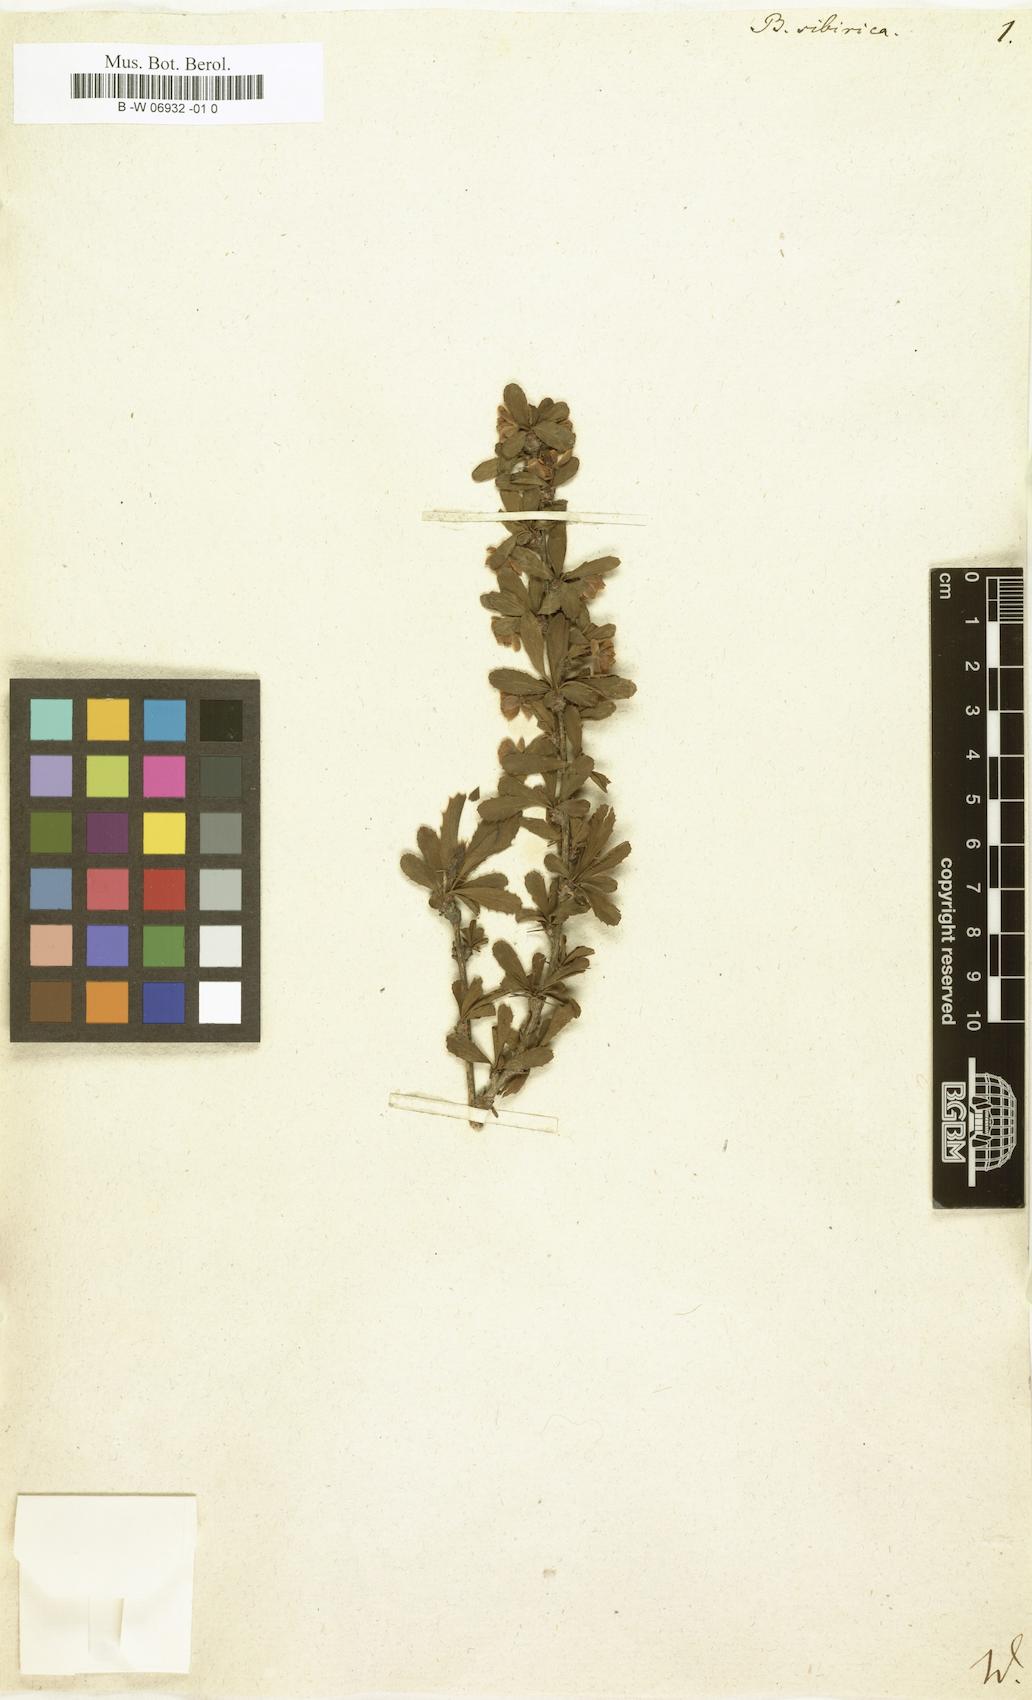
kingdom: Plantae
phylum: Tracheophyta
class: Magnoliopsida
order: Ranunculales
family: Berberidaceae
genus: Berberis
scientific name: Berberis sibirica
